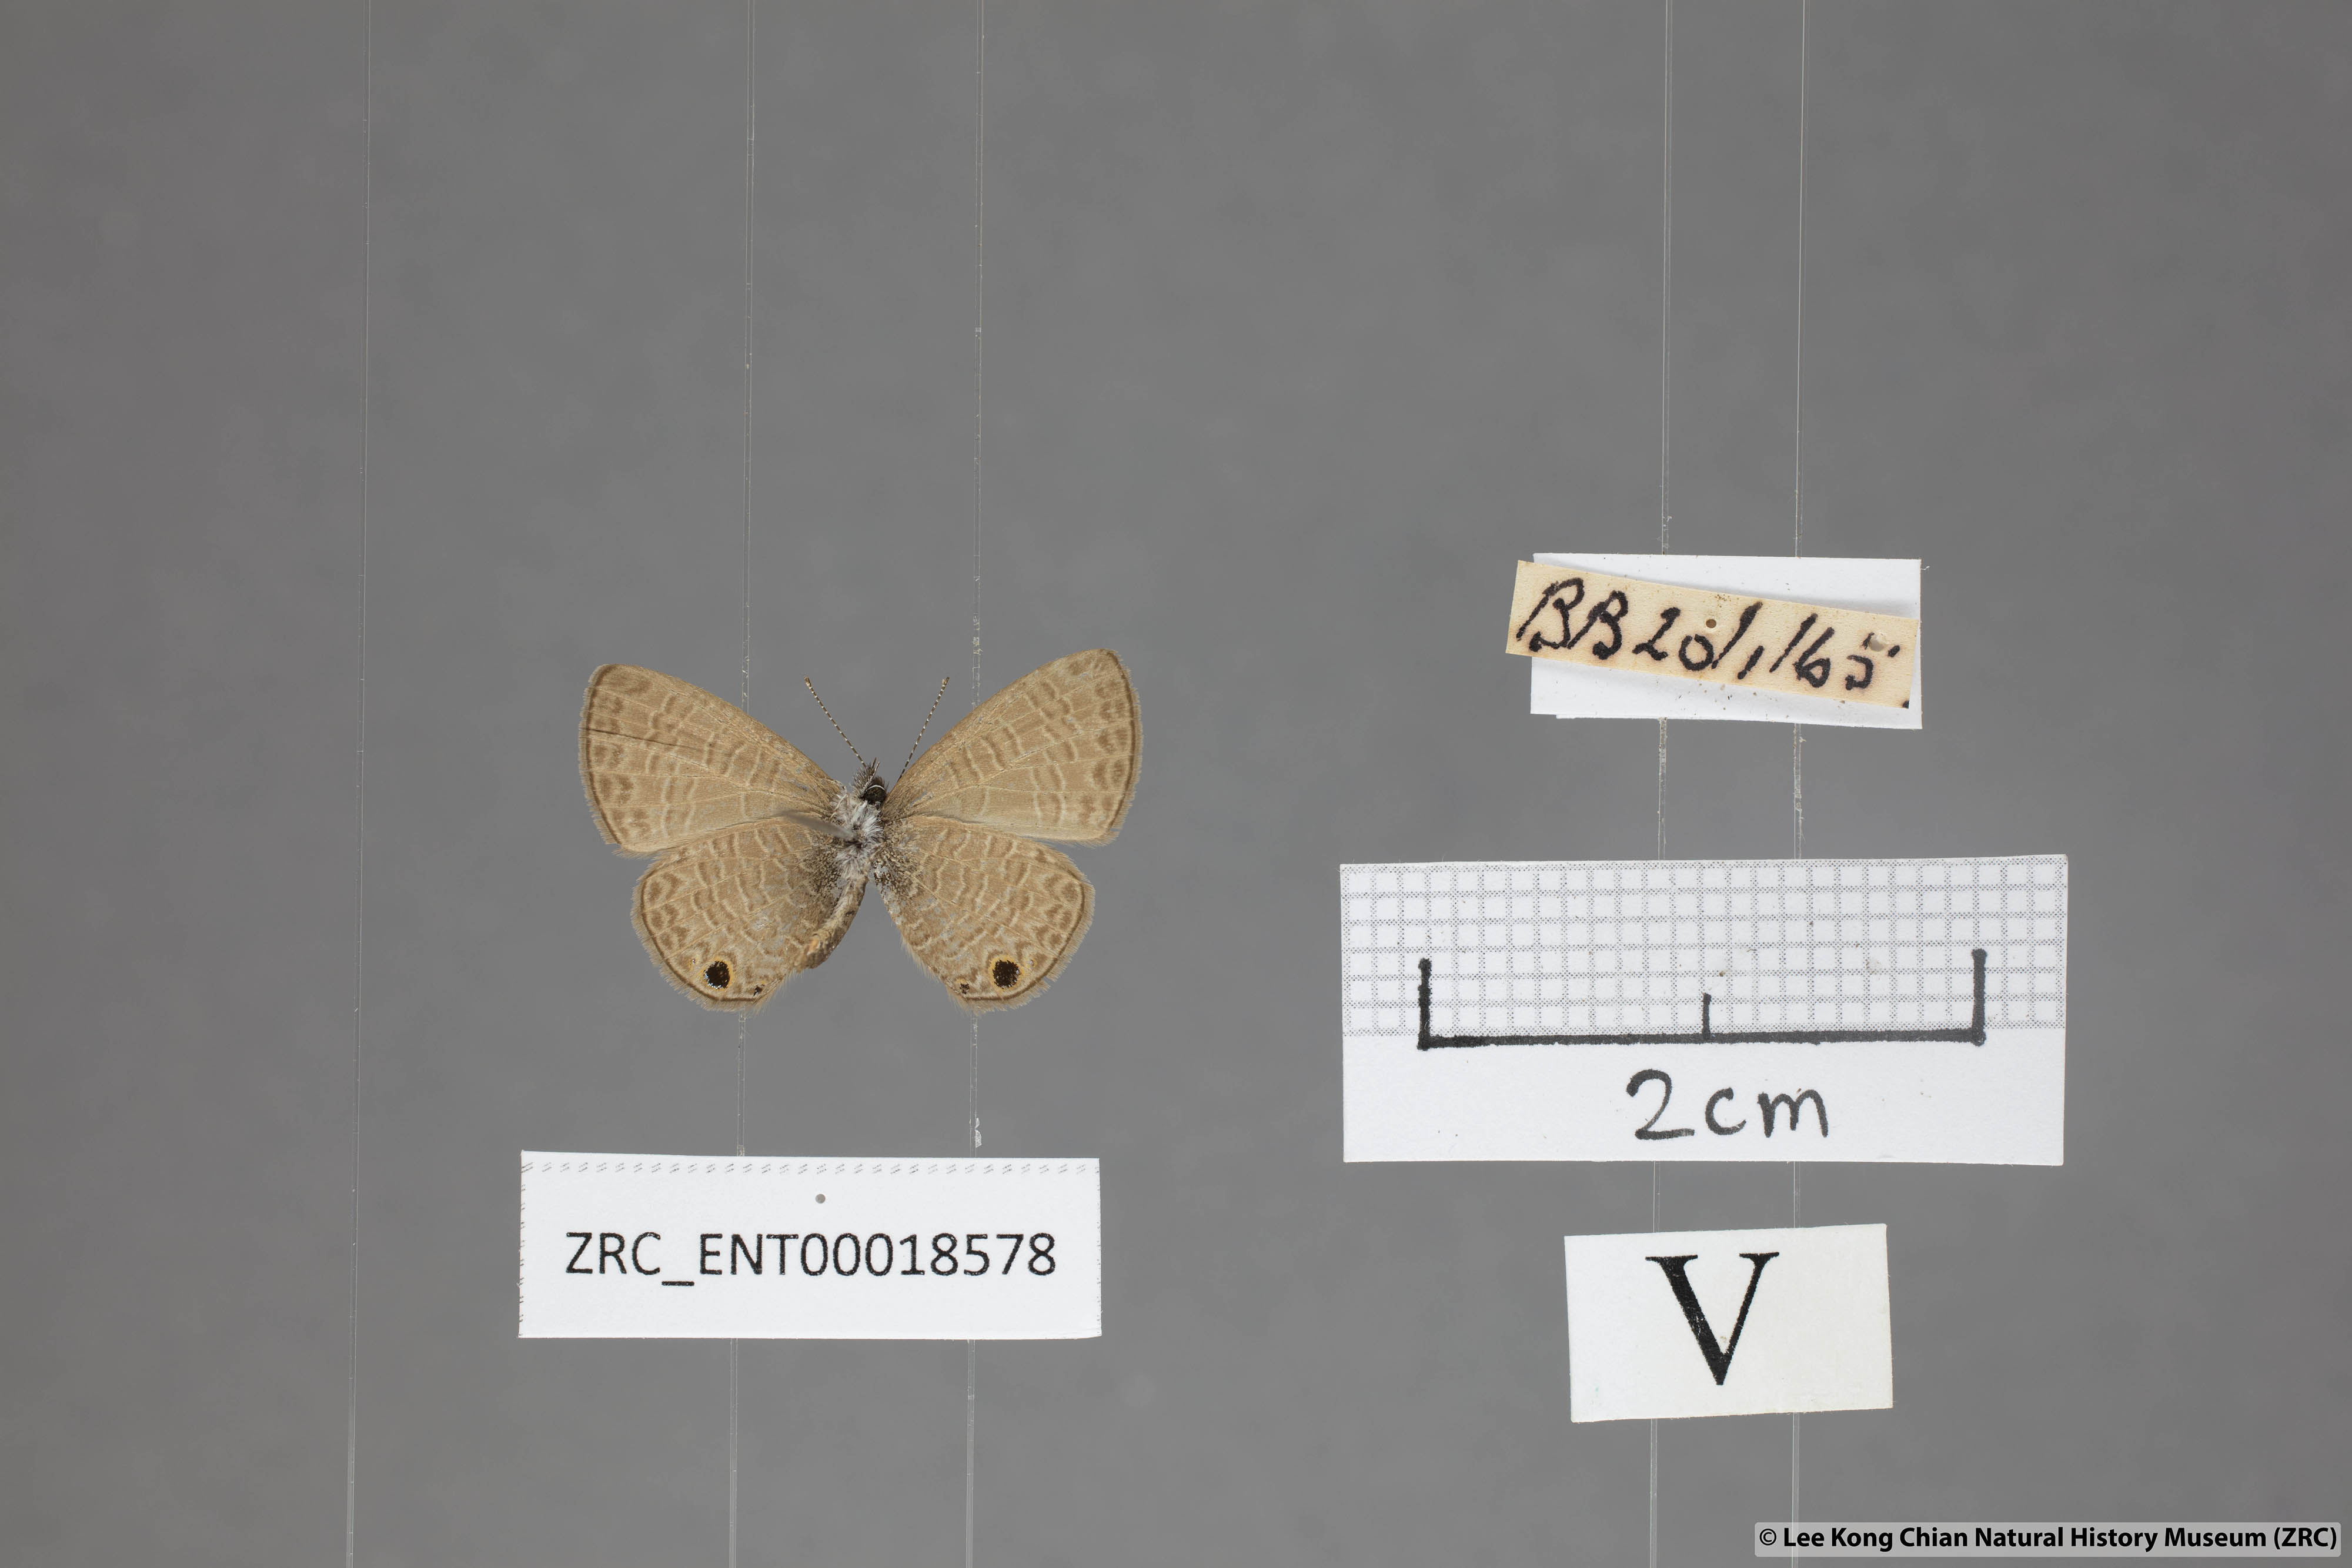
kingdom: Animalia
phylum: Arthropoda
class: Insecta
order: Lepidoptera
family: Lycaenidae
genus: Prosotas
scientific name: Prosotas dubiosa
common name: Tailless lineblue
